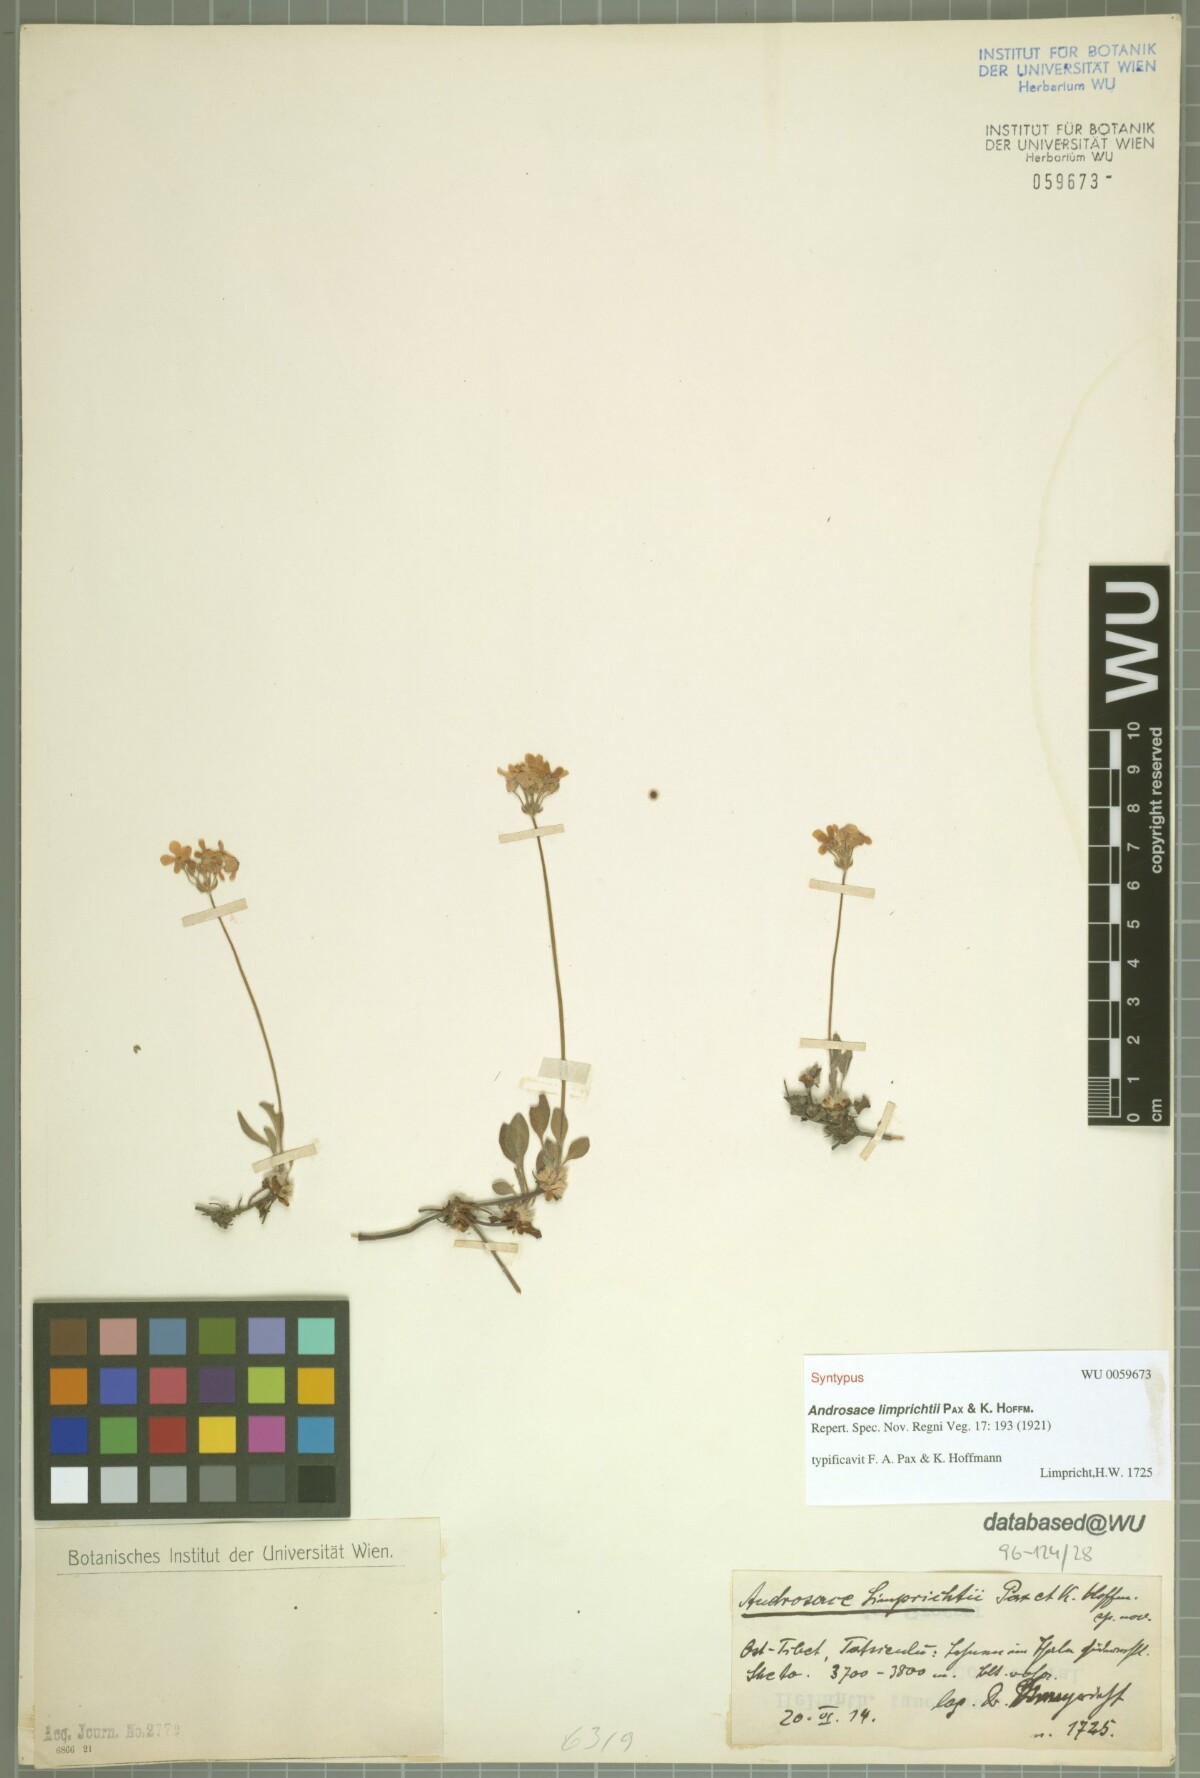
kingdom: Plantae
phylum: Tracheophyta
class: Magnoliopsida
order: Ericales
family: Primulaceae
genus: Androsace
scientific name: Androsace limprichtii
